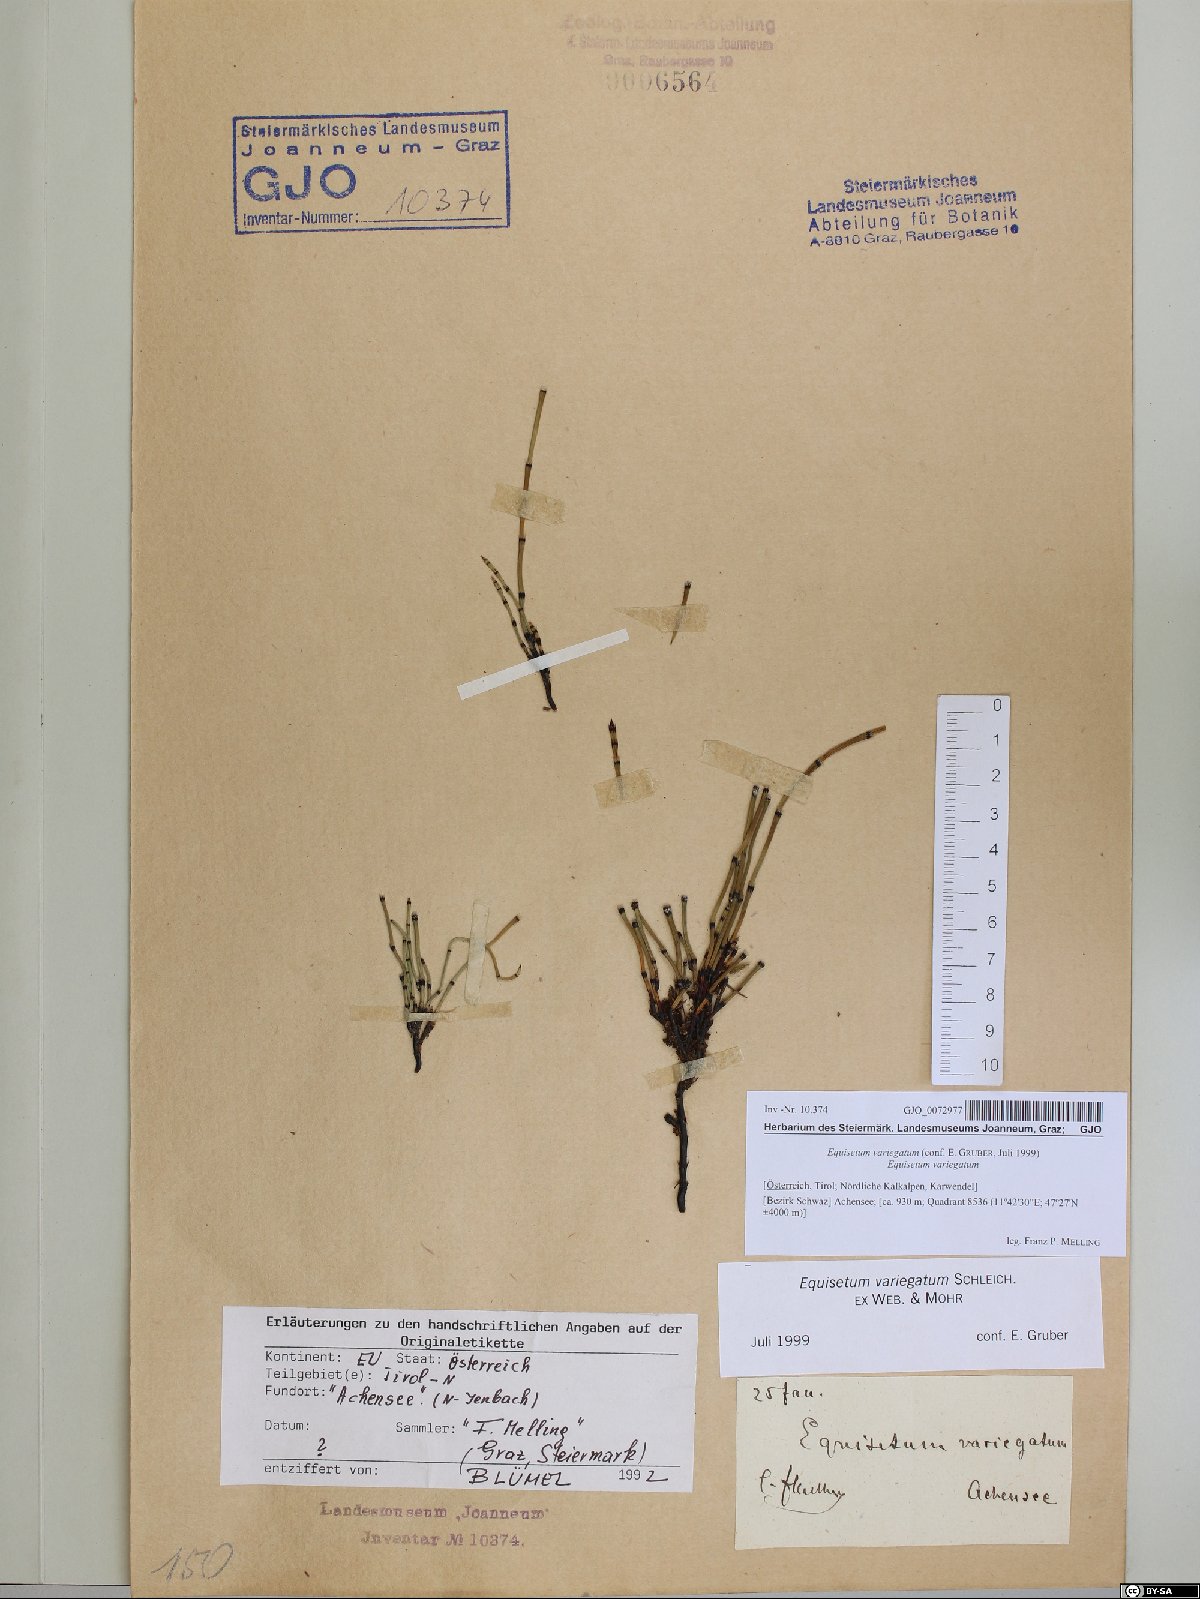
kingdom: Plantae
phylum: Tracheophyta
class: Polypodiopsida
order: Equisetales
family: Equisetaceae
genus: Equisetum
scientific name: Equisetum variegatum
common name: Variegated horsetail
